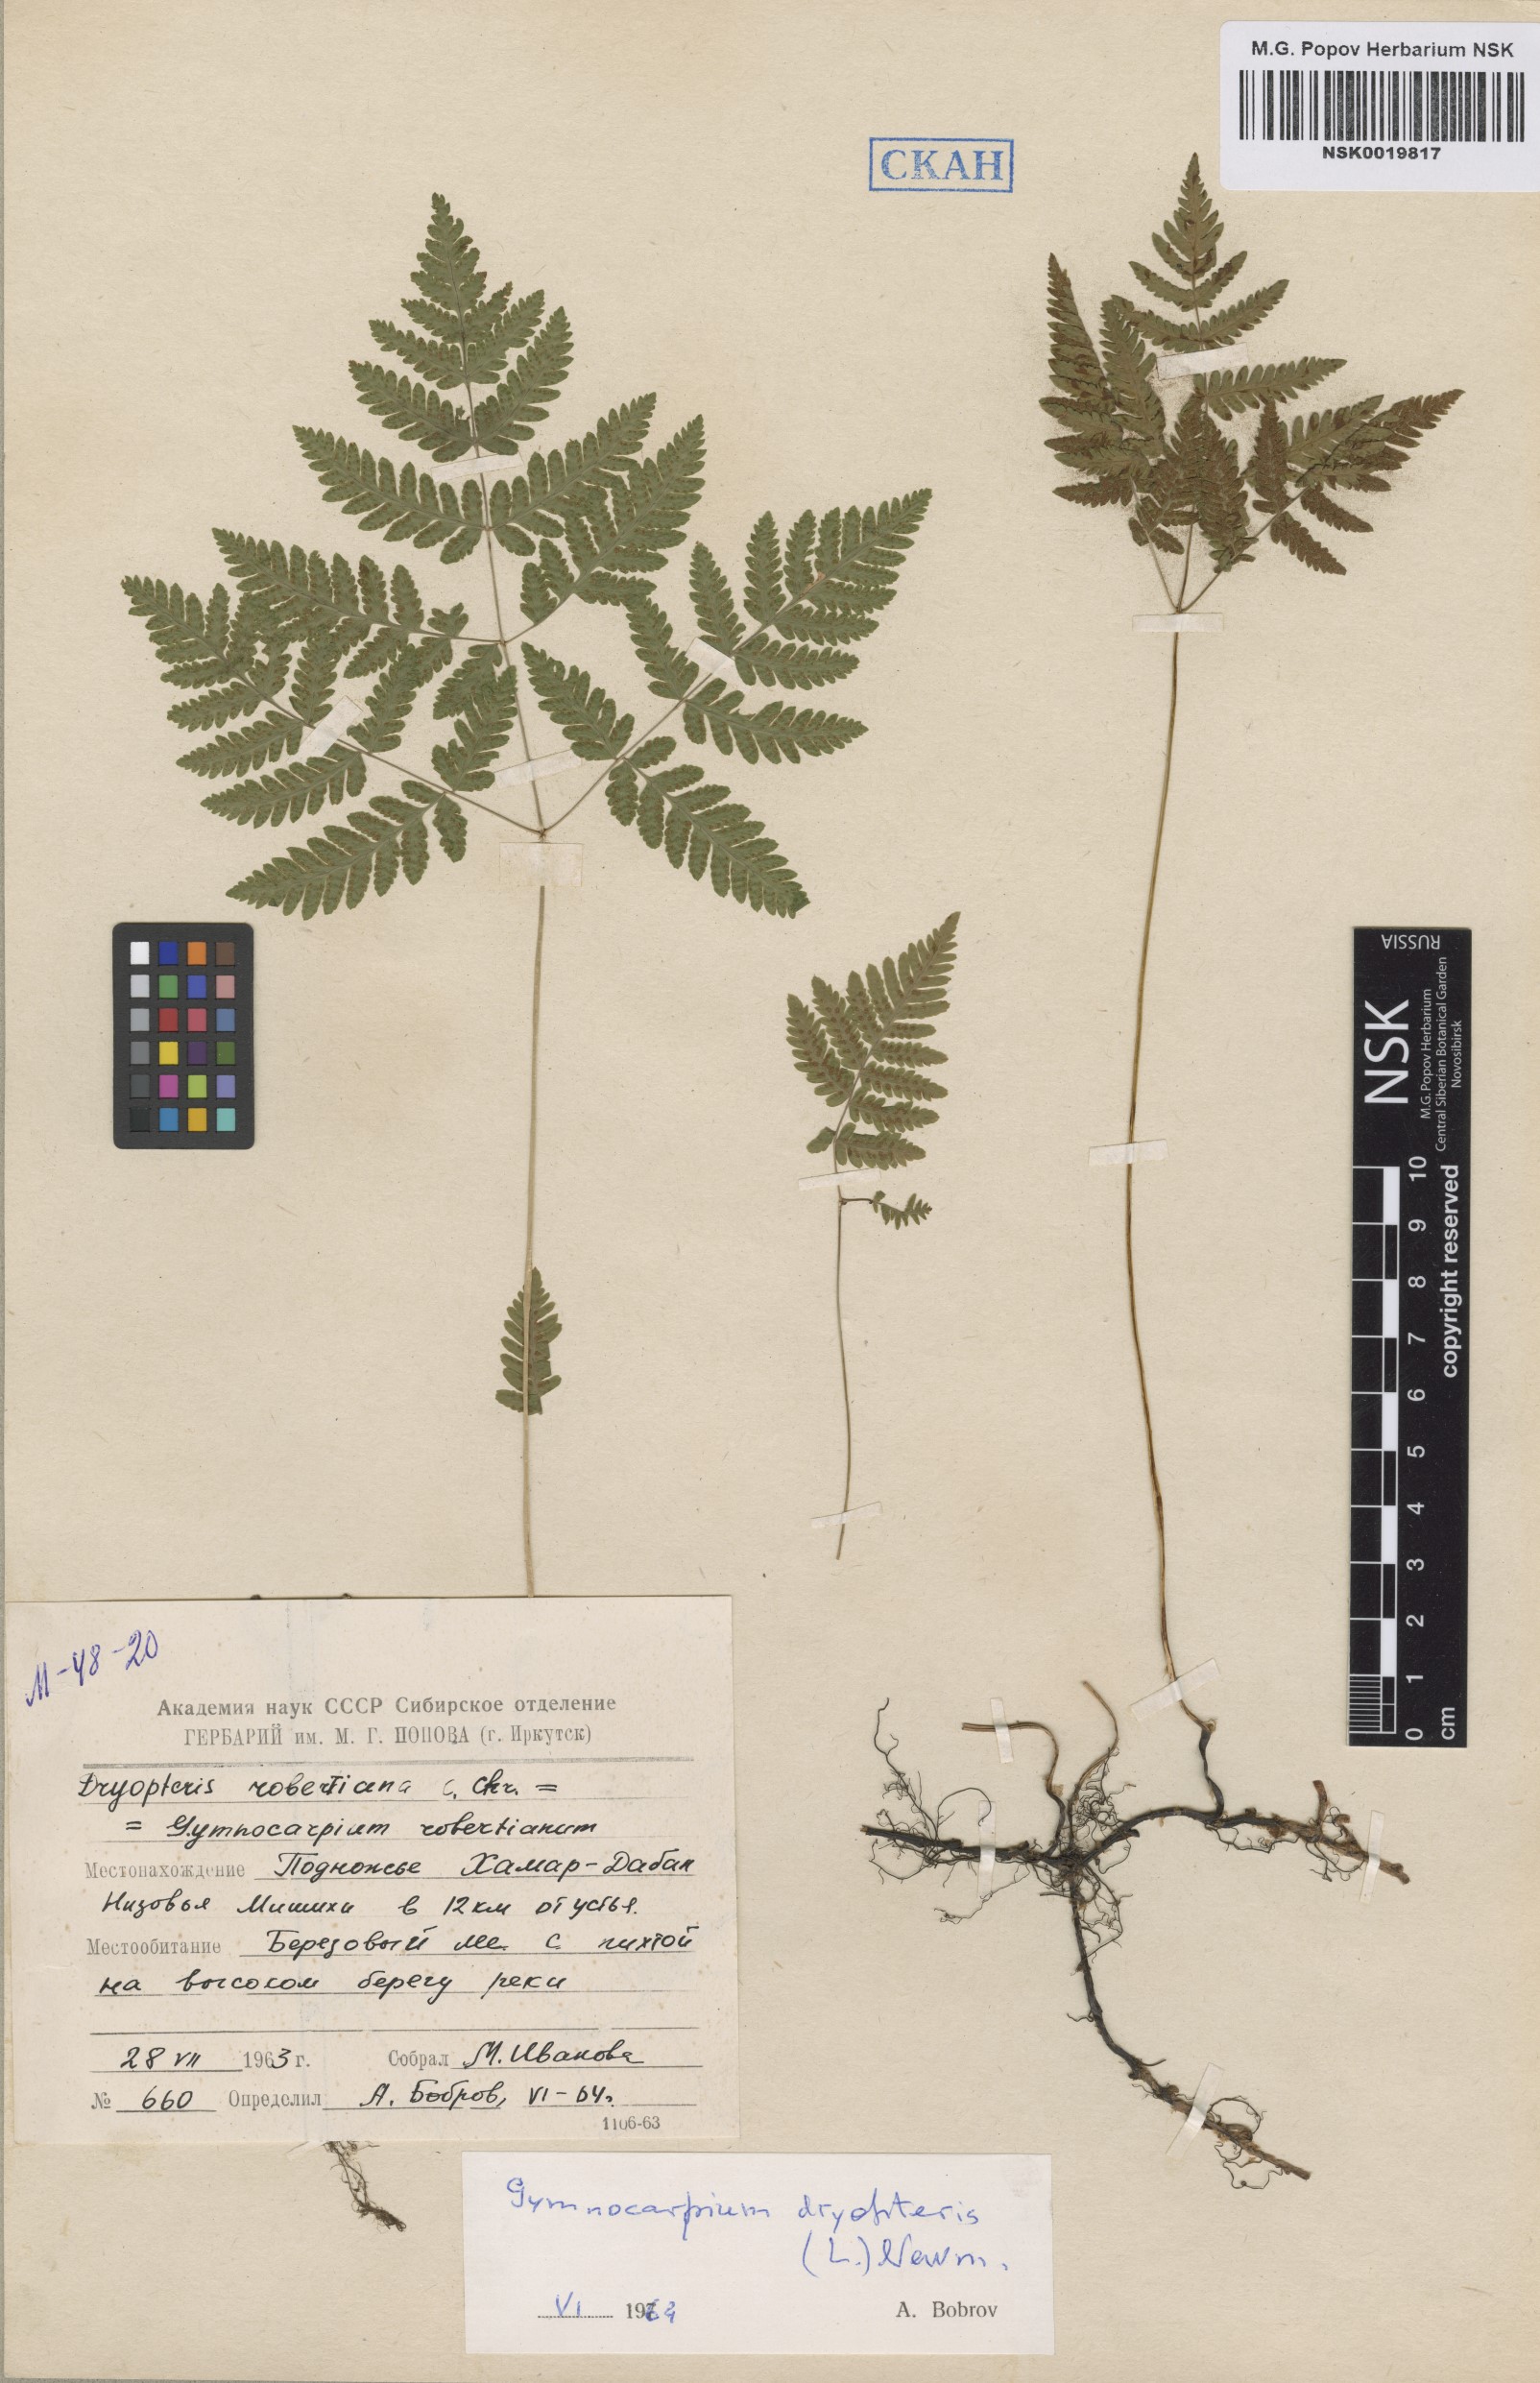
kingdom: Plantae
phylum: Tracheophyta
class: Polypodiopsida
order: Polypodiales
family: Cystopteridaceae
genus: Gymnocarpium
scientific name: Gymnocarpium dryopteris
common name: Oak fern
